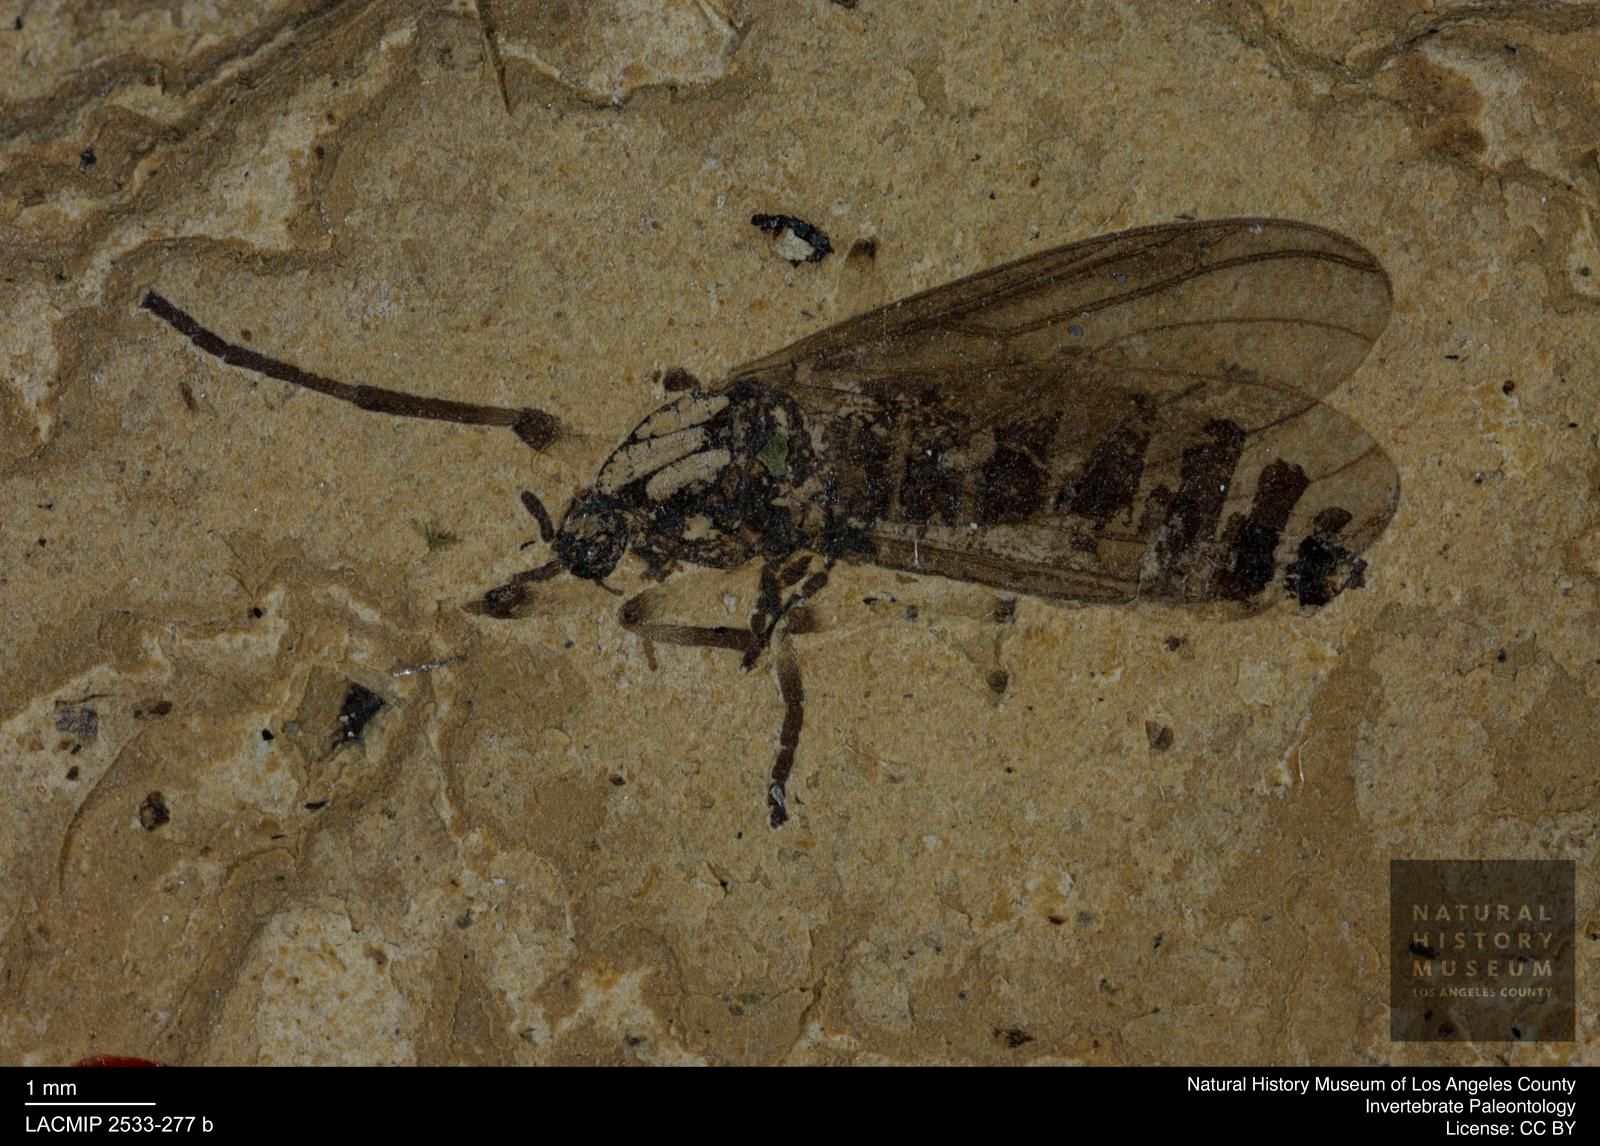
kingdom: Animalia
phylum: Arthropoda
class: Insecta
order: Diptera
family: Bibionidae
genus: Plecia
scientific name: Plecia pinguis
